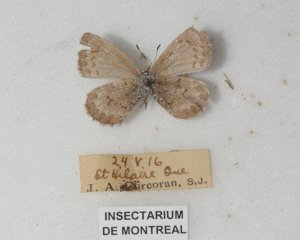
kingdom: Animalia
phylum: Arthropoda
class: Insecta
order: Lepidoptera
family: Lycaenidae
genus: Celastrina
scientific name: Celastrina ladon
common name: Spring Azure
